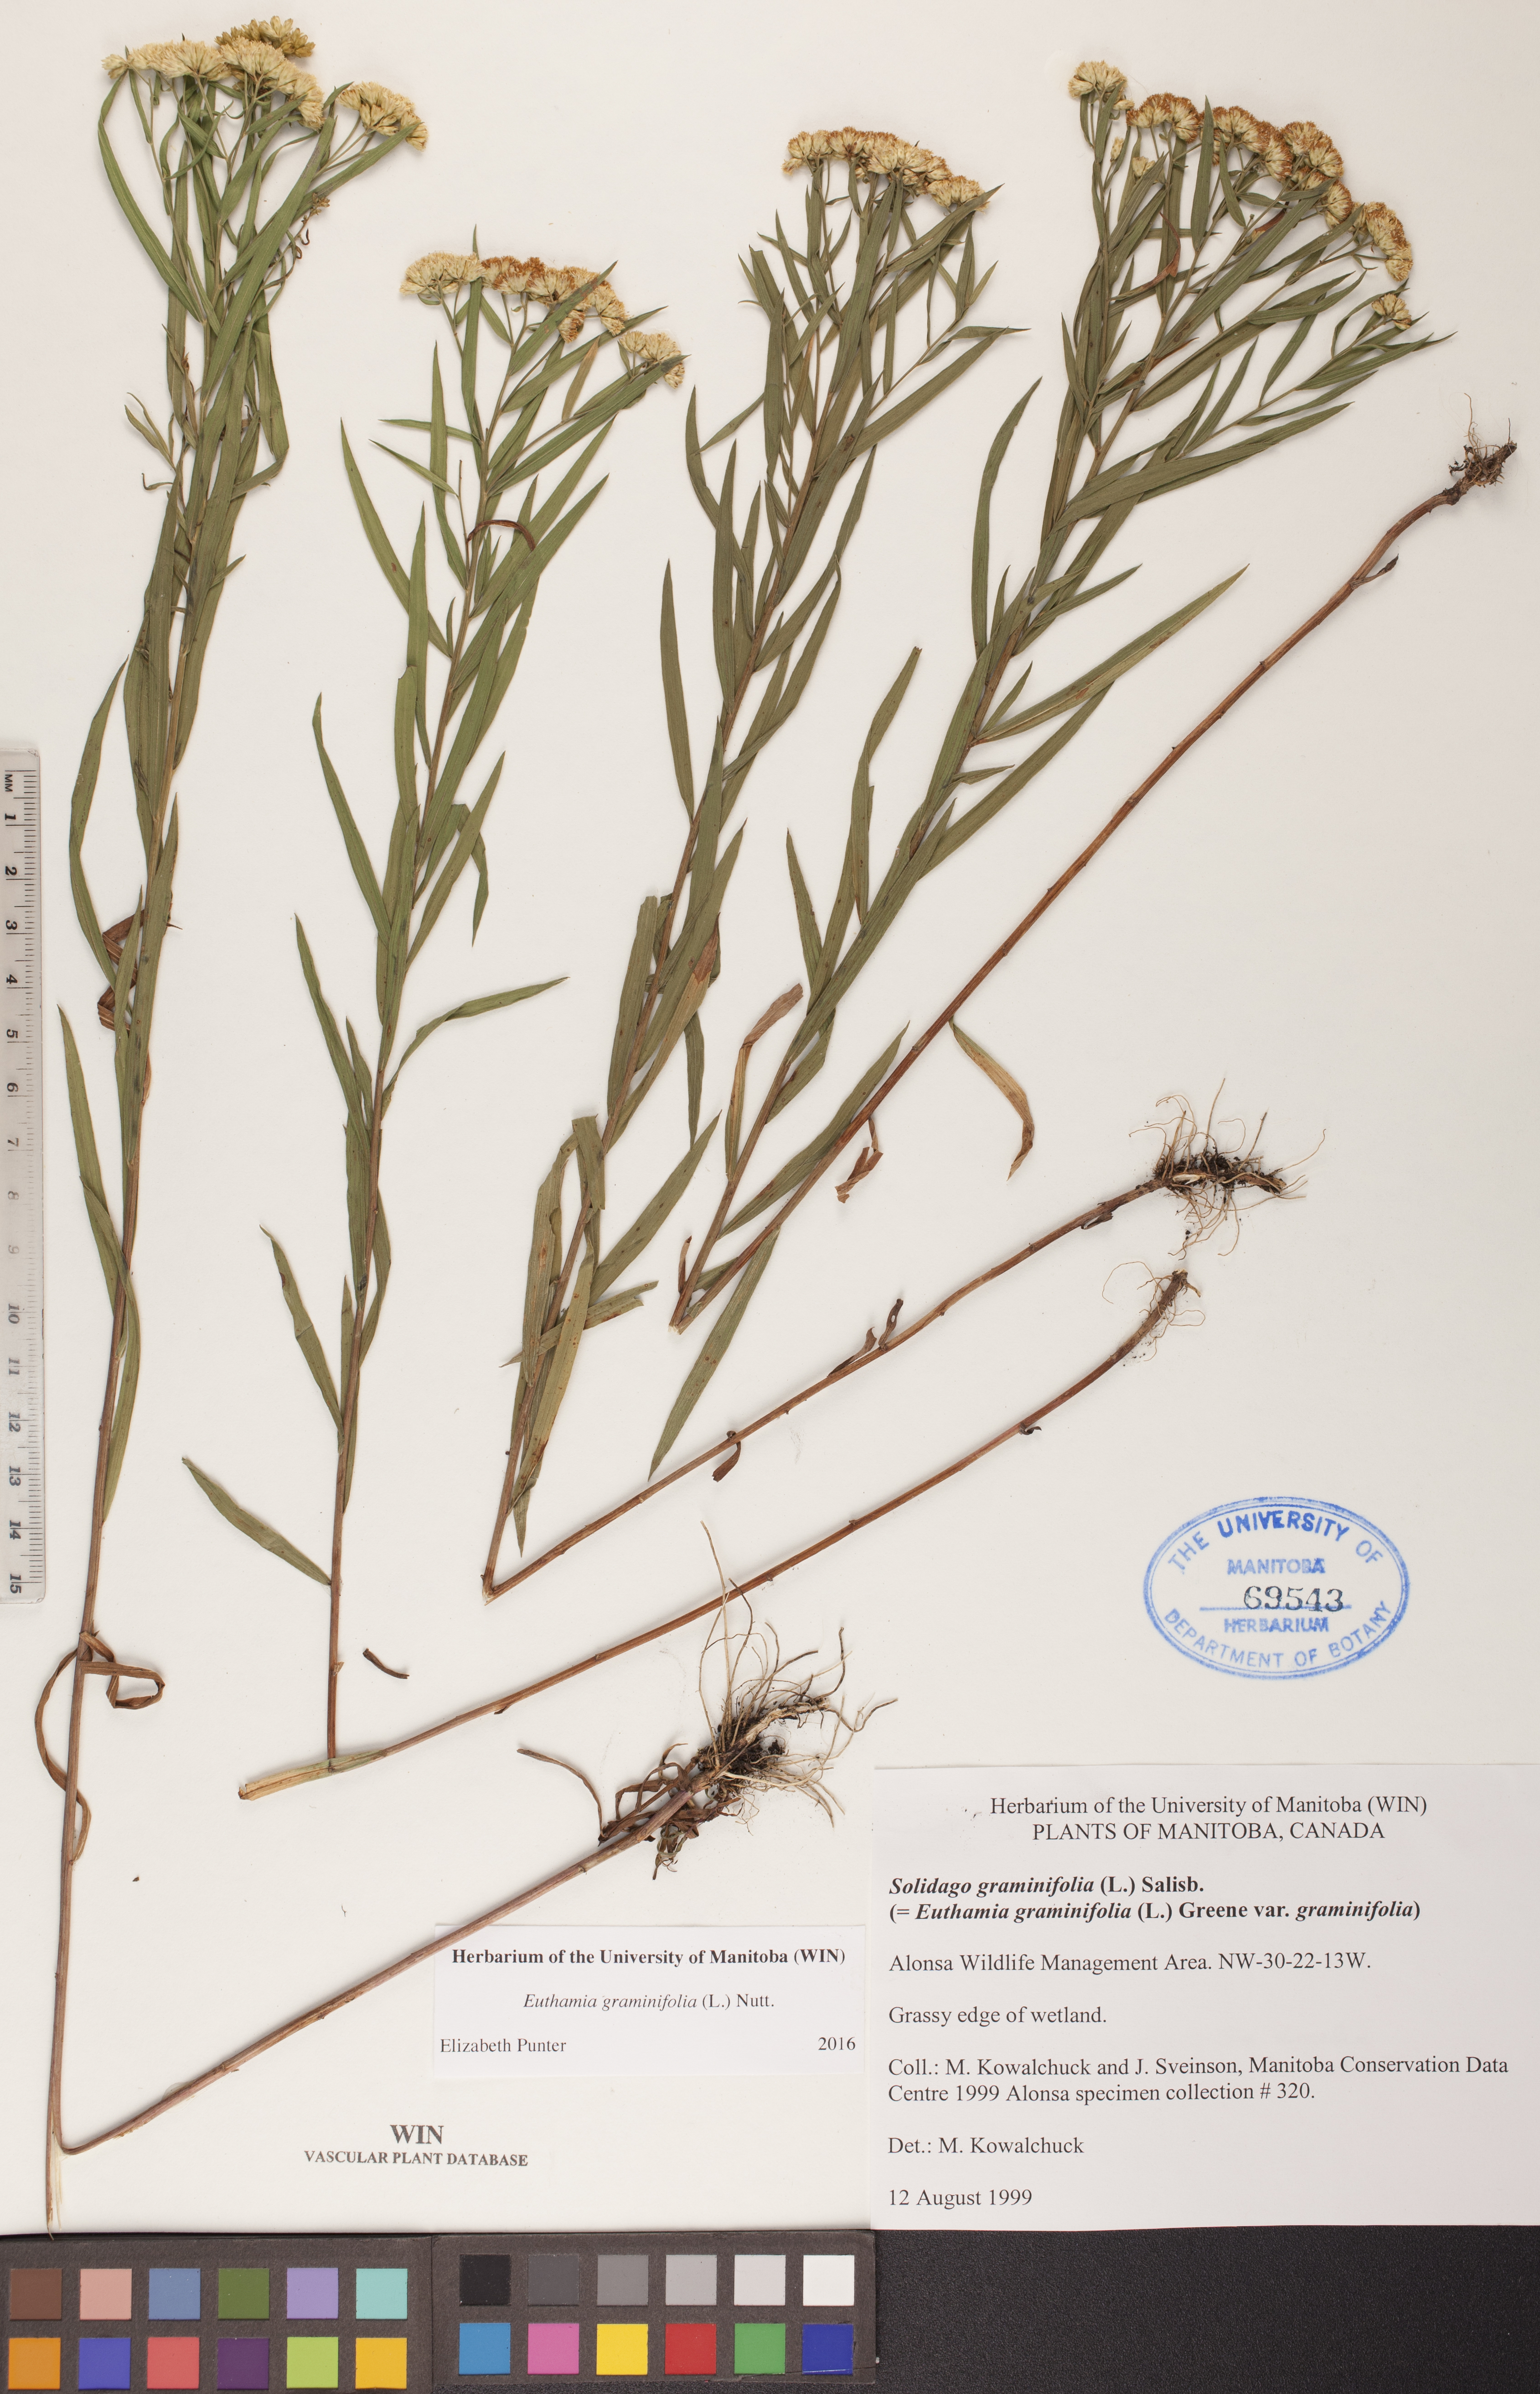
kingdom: Plantae
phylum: Tracheophyta
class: Magnoliopsida
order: Asterales
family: Asteraceae
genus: Euthamia
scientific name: Euthamia graminifolia
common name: Common goldentop
